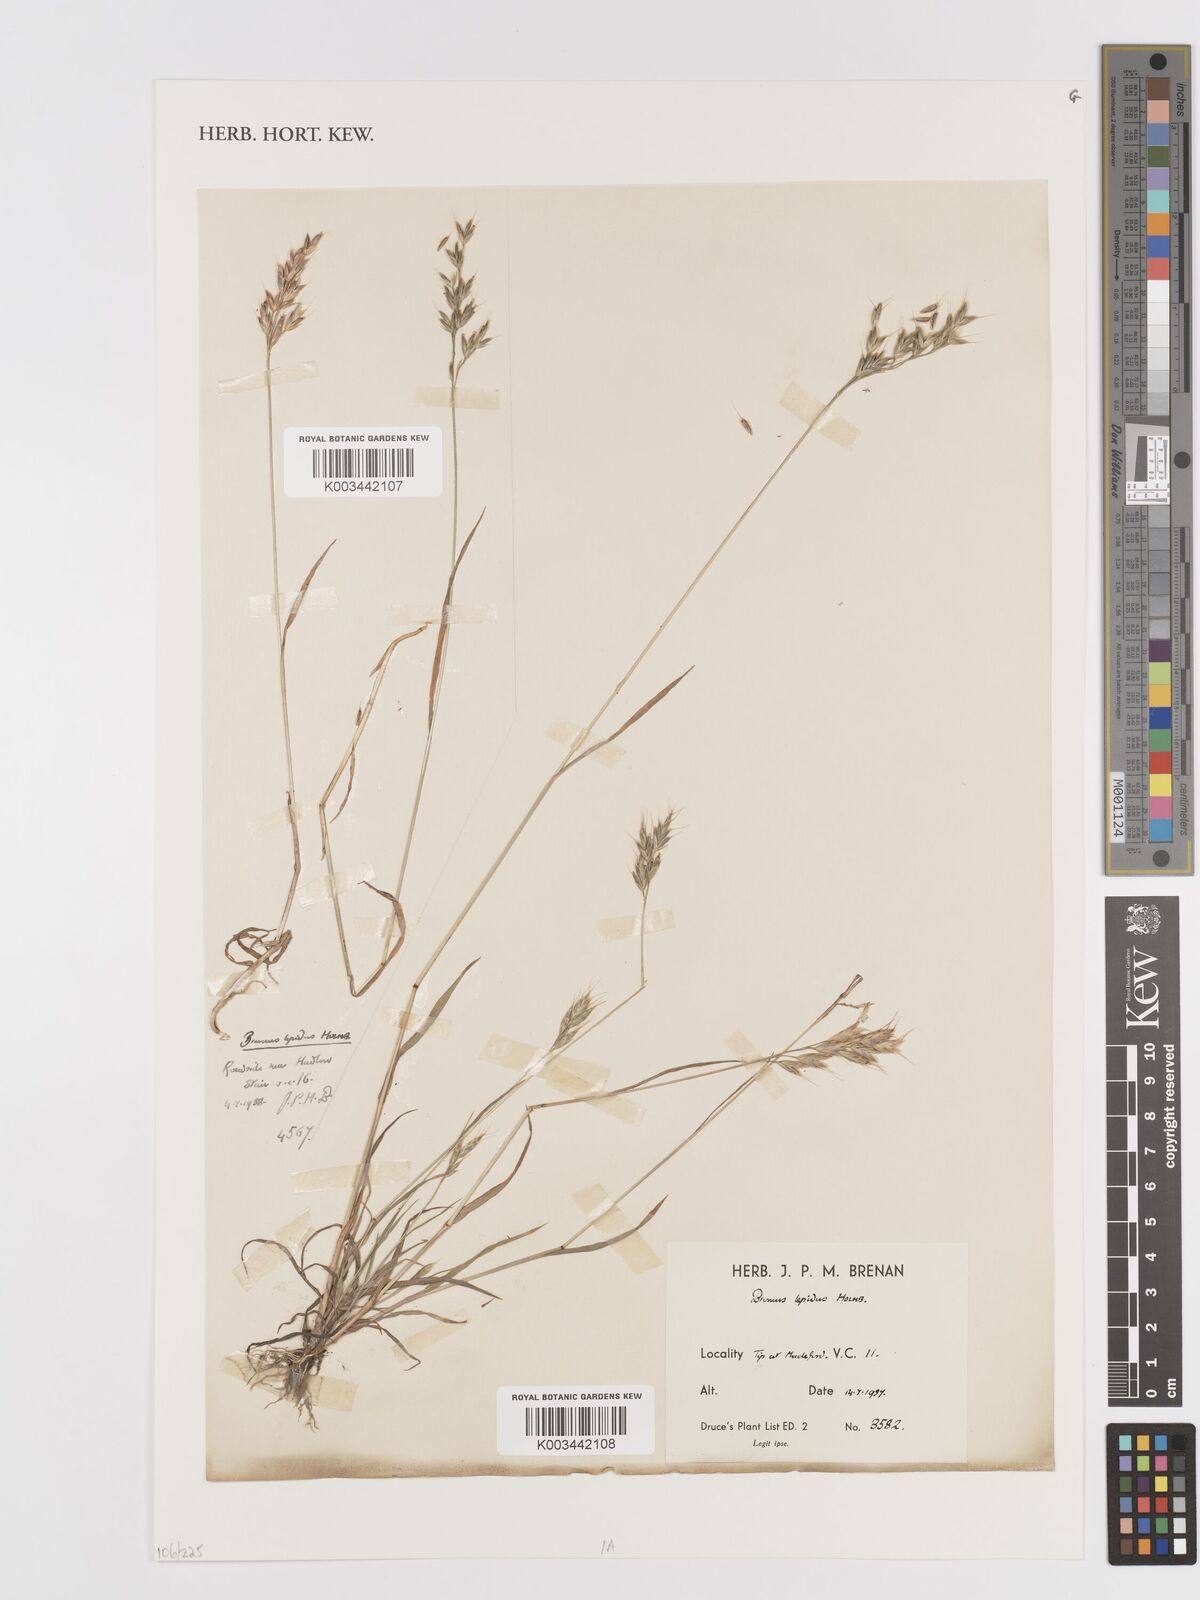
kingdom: Plantae
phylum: Tracheophyta
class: Liliopsida
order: Poales
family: Poaceae
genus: Bromus
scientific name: Bromus lepidus
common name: Slender soft-brome
